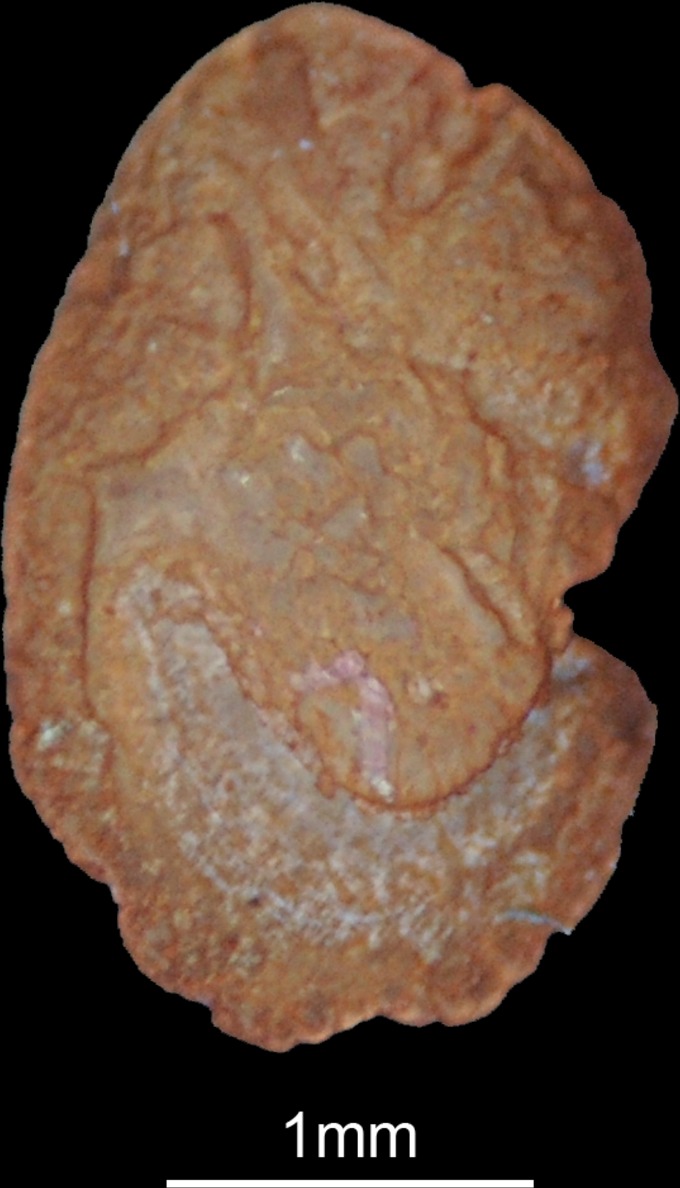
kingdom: Animalia
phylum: Chordata
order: Siluriformes
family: Ictaluridae
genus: Ameiurus
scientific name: Ameiurus nebulosus
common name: Brown bullhead
